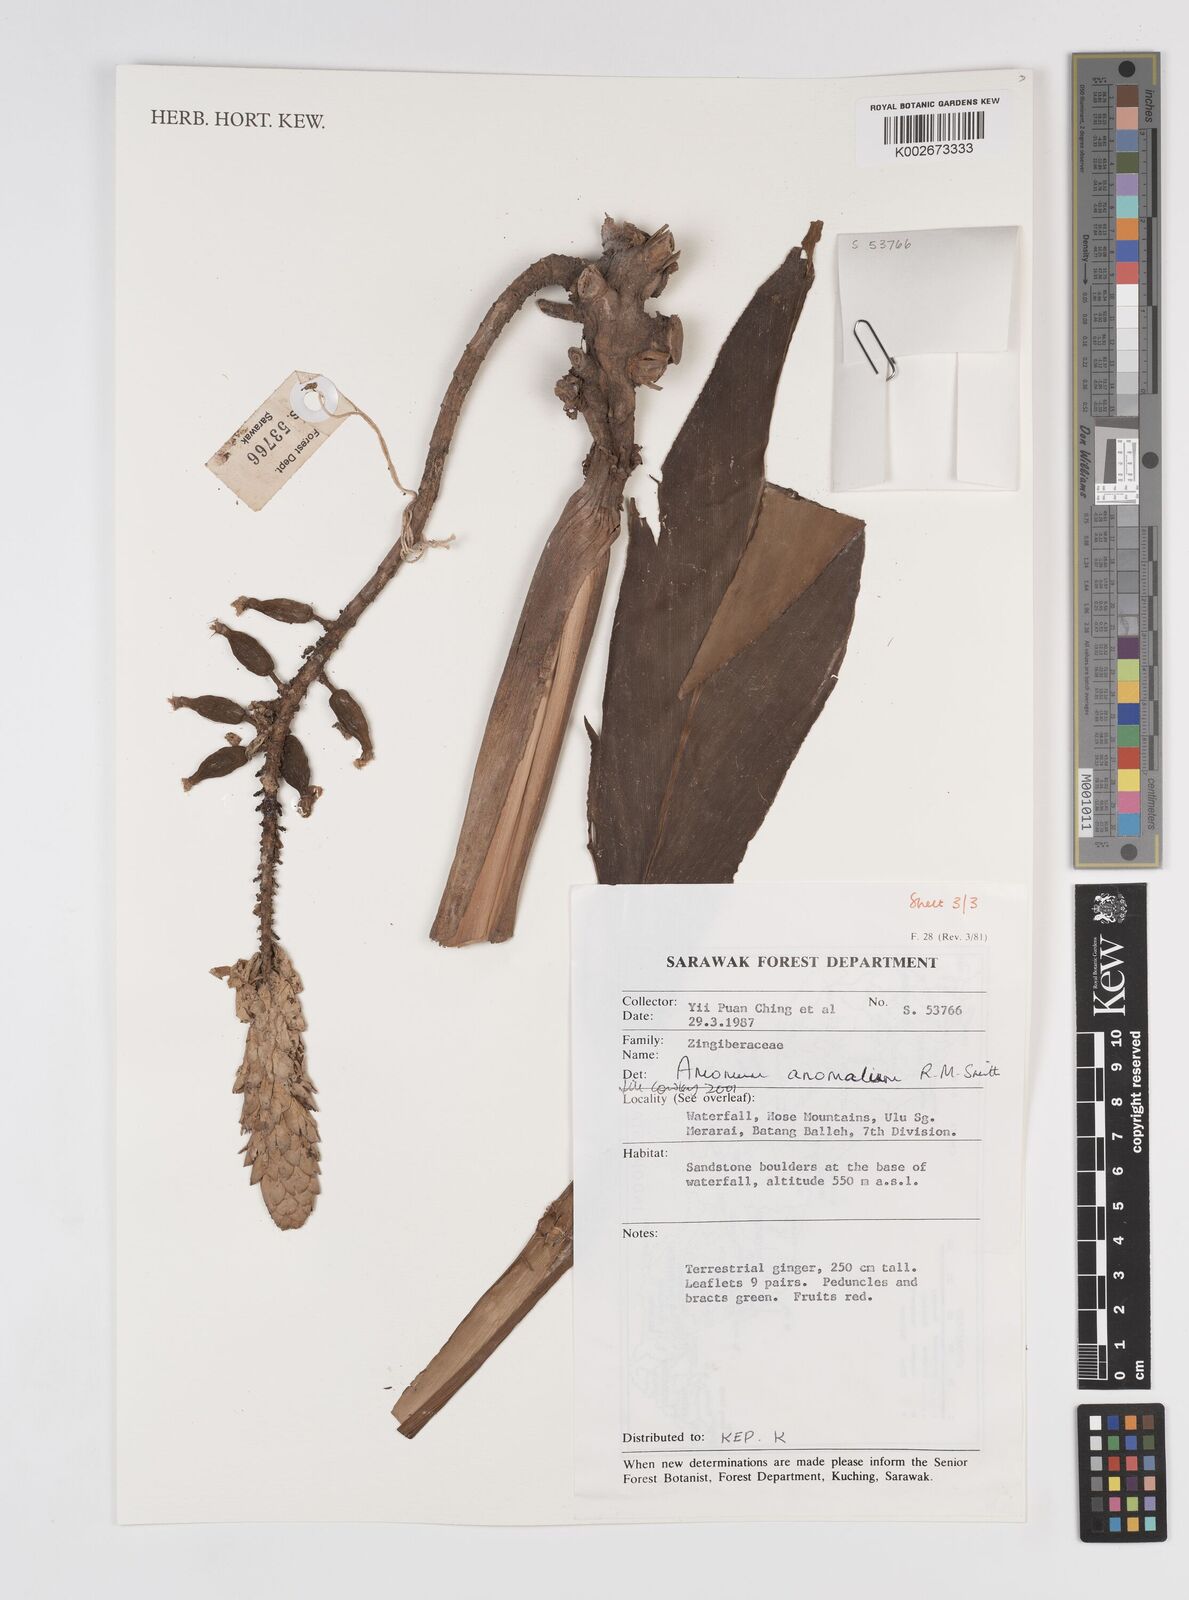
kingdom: Plantae
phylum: Tracheophyta
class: Liliopsida
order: Zingiberales
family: Zingiberaceae
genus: Sulettaria
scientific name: Sulettaria anomala
